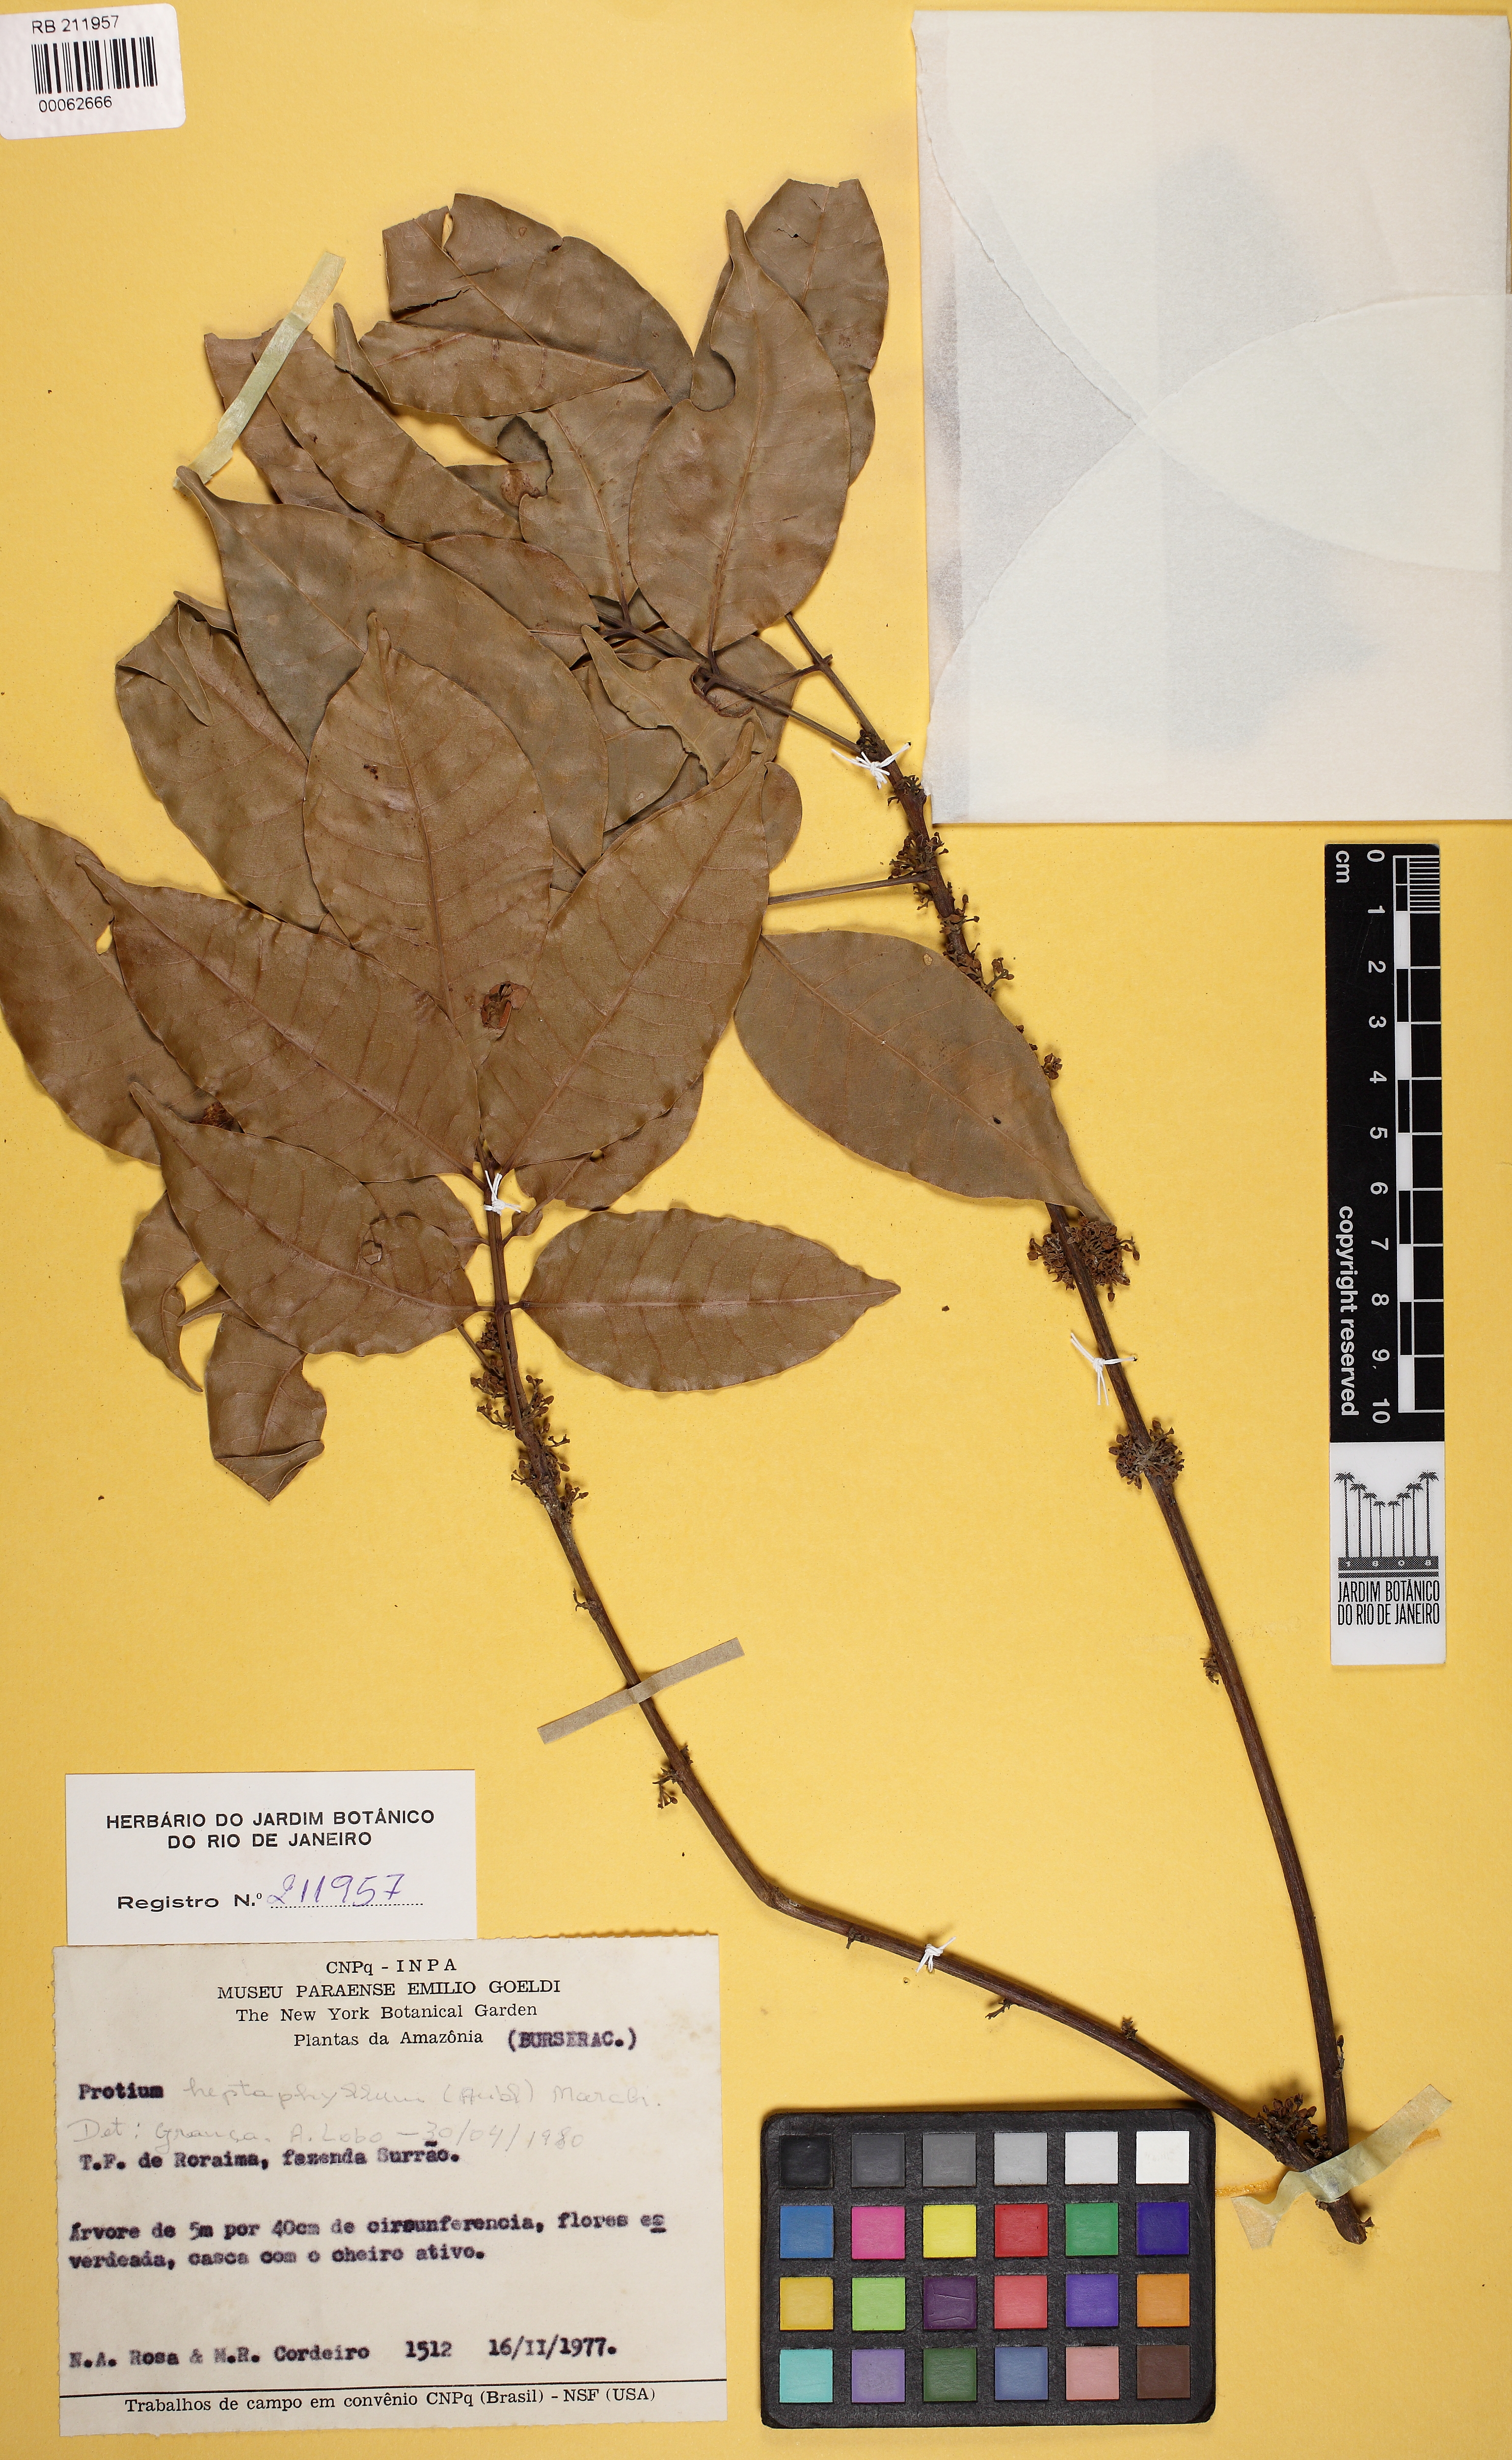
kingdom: Plantae
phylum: Tracheophyta
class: Magnoliopsida
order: Sapindales
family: Burseraceae
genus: Protium
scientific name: Protium heptaphyllum
